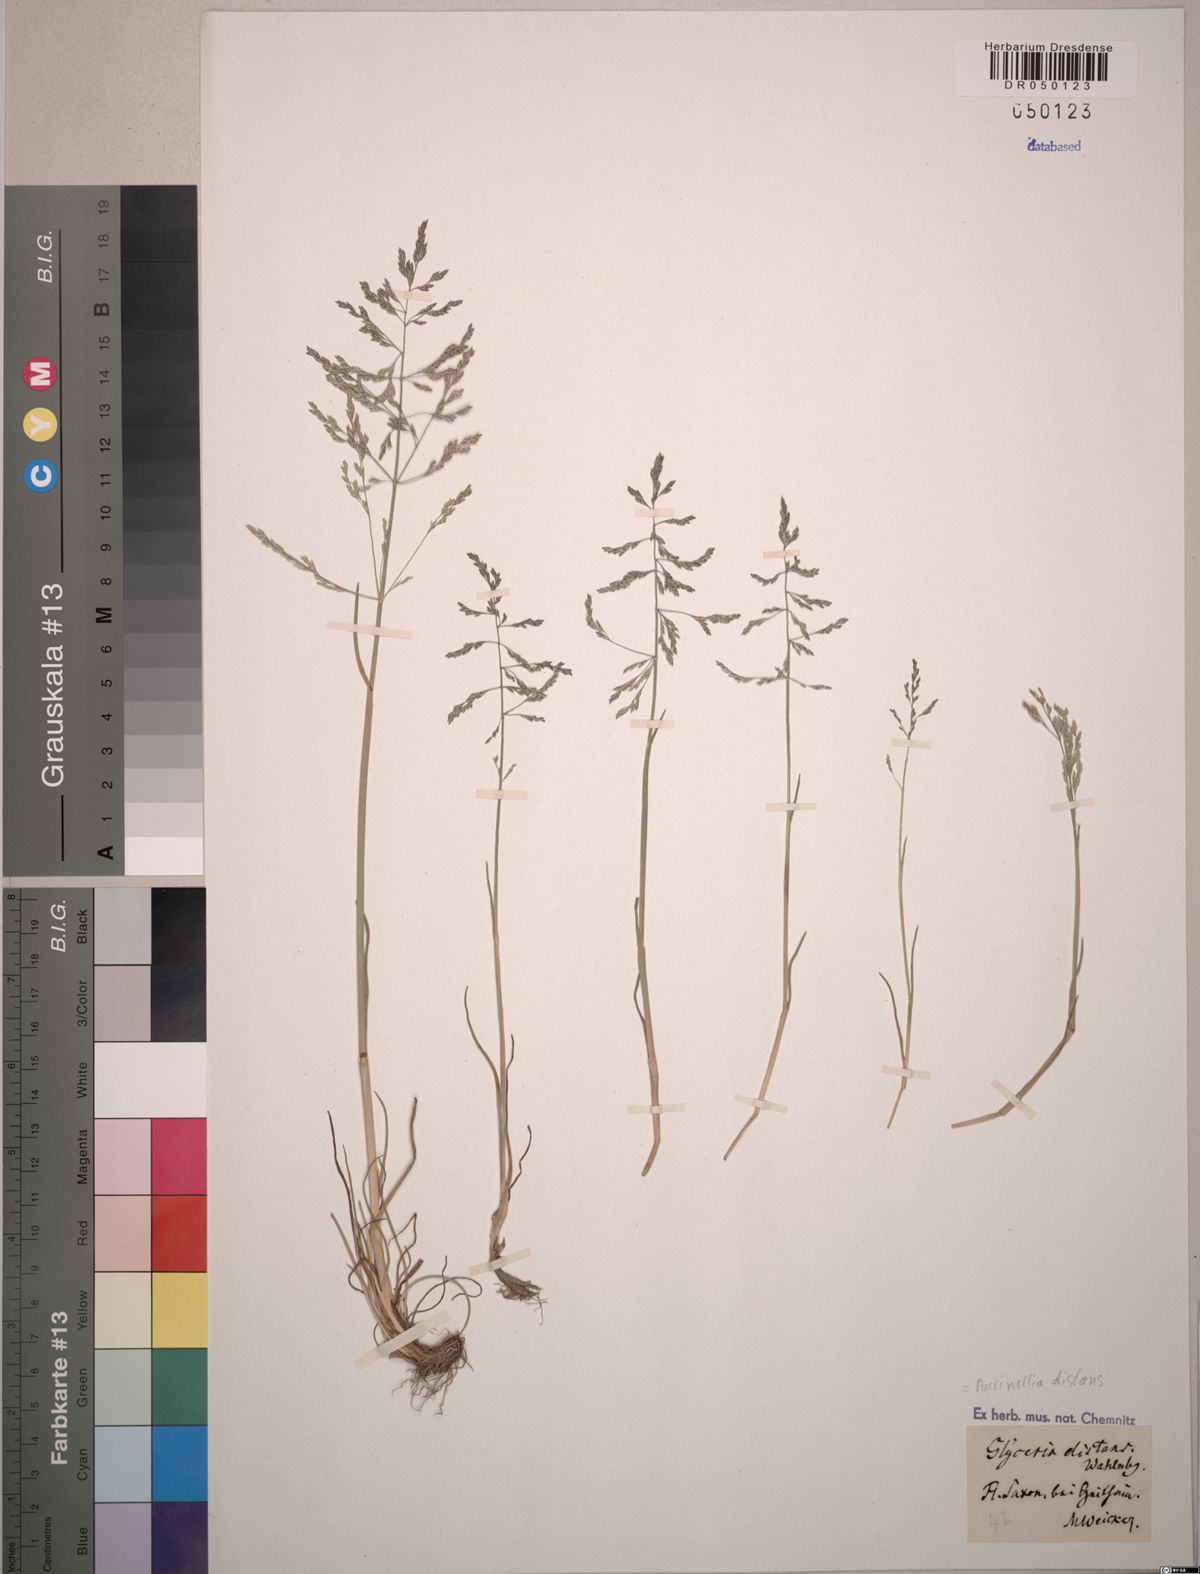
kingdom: Plantae
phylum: Tracheophyta
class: Liliopsida
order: Poales
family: Poaceae
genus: Puccinellia
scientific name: Puccinellia distans
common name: Weeping alkaligrass
